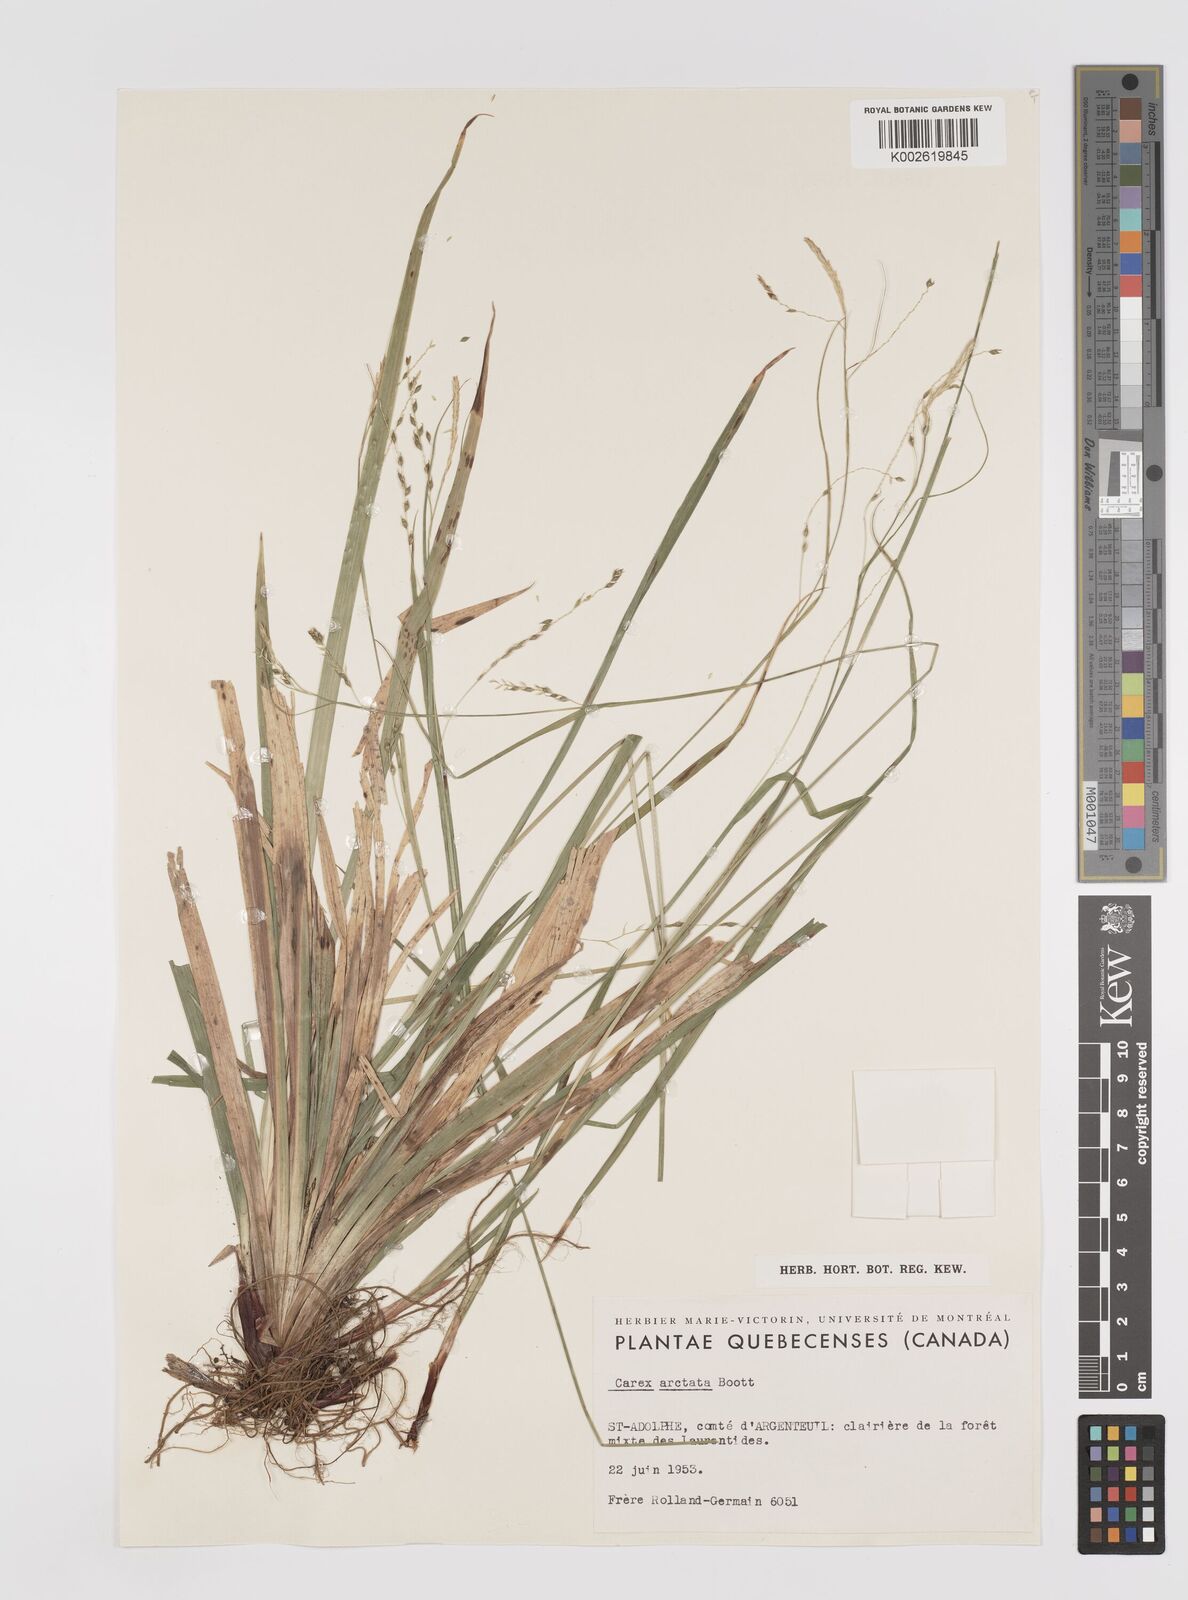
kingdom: Plantae
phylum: Tracheophyta
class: Liliopsida
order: Poales
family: Cyperaceae
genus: Carex
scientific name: Carex arctata
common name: Black sedge
